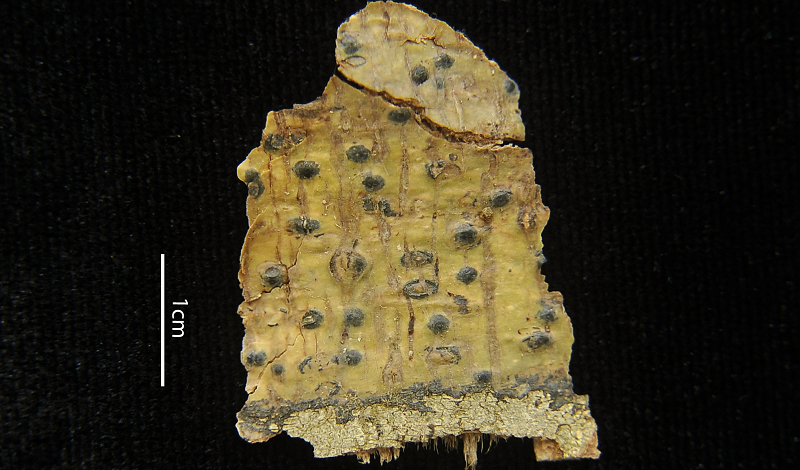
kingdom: Fungi
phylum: Ascomycota
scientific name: Ascomycota
